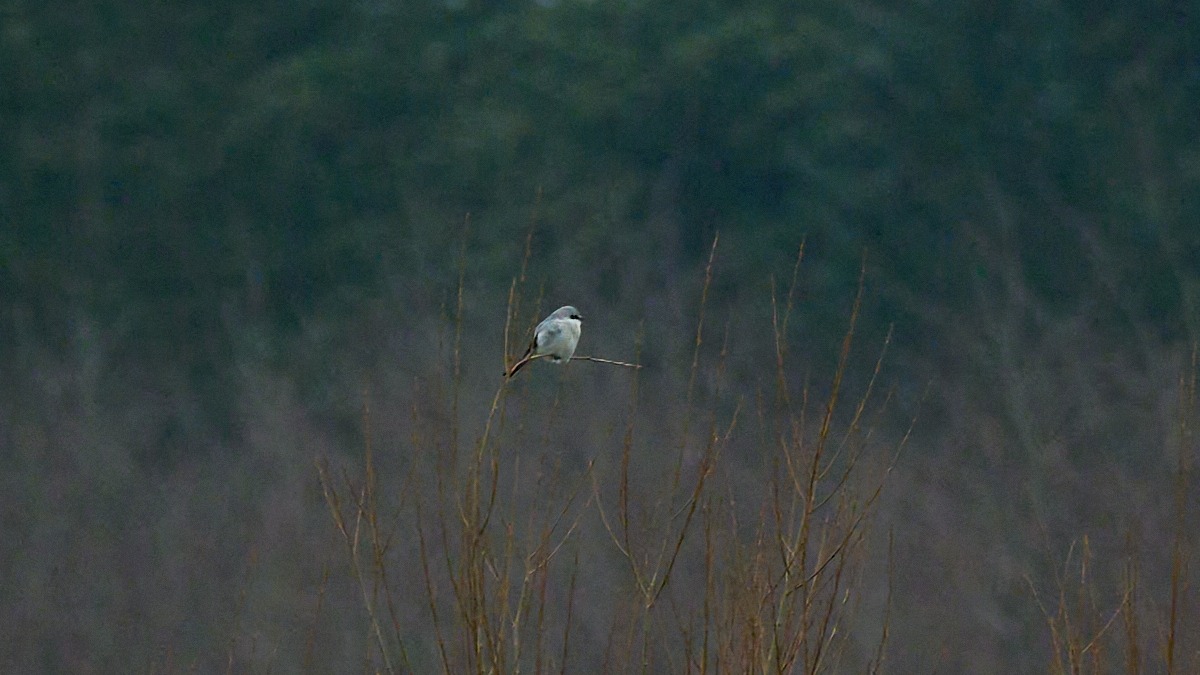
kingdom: Animalia
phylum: Chordata
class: Aves
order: Passeriformes
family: Laniidae
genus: Lanius
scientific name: Lanius excubitor
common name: Stor tornskade
